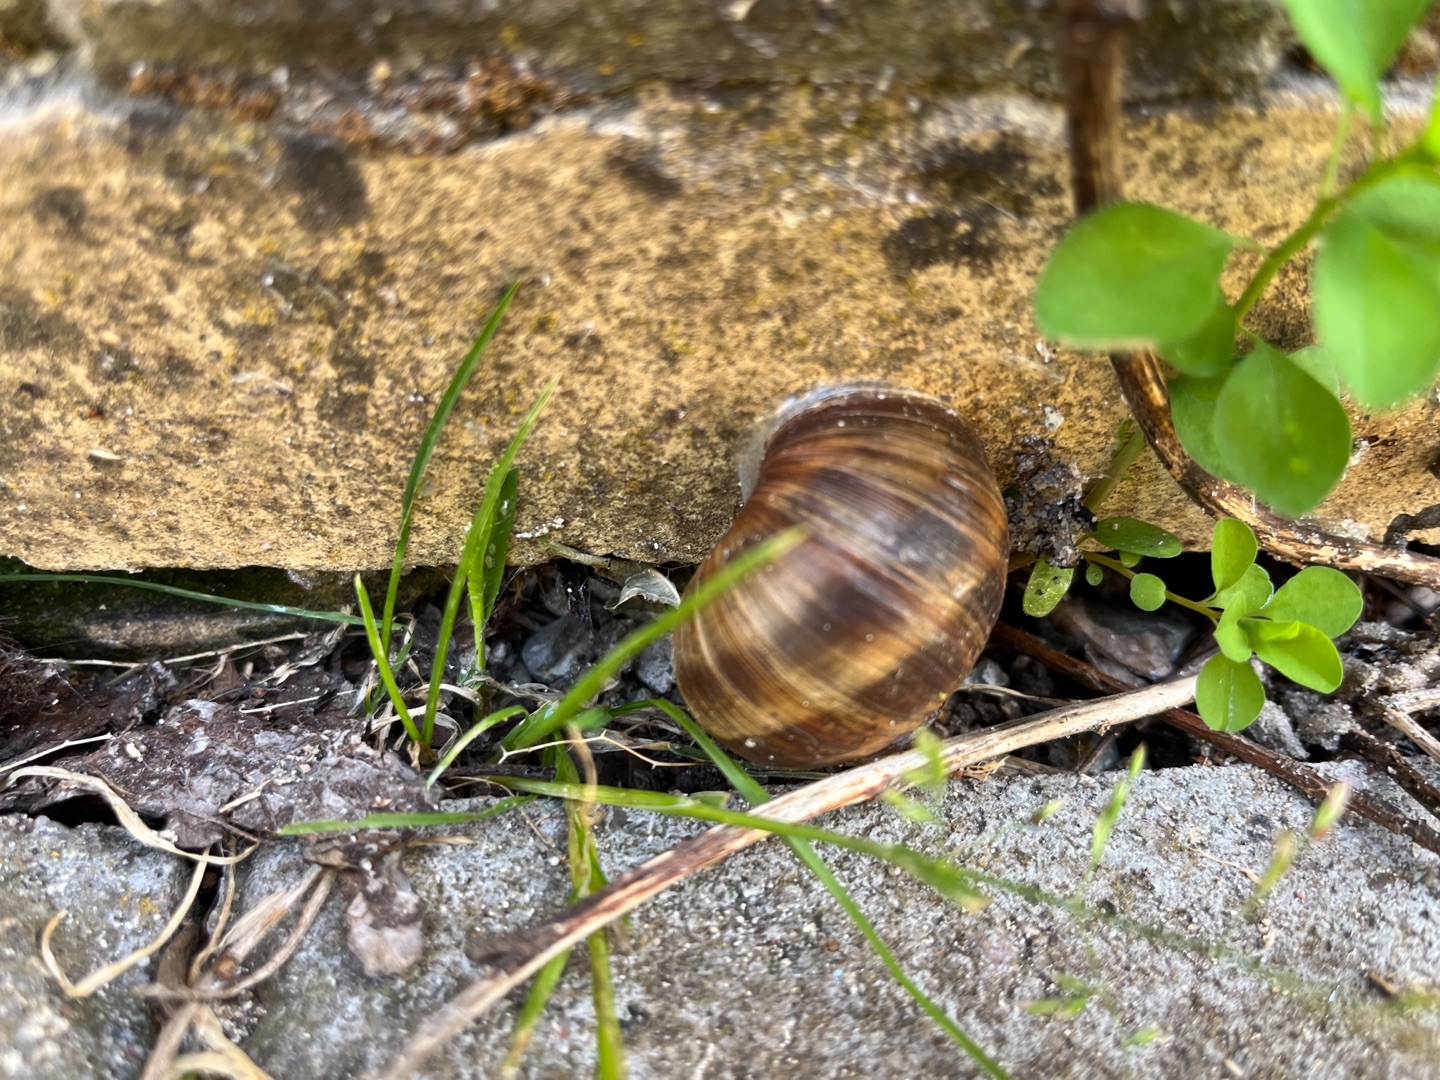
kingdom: Animalia
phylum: Mollusca
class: Gastropoda
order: Stylommatophora
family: Helicidae
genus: Helix
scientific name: Helix pomatia
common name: Vinbjergsnegl
